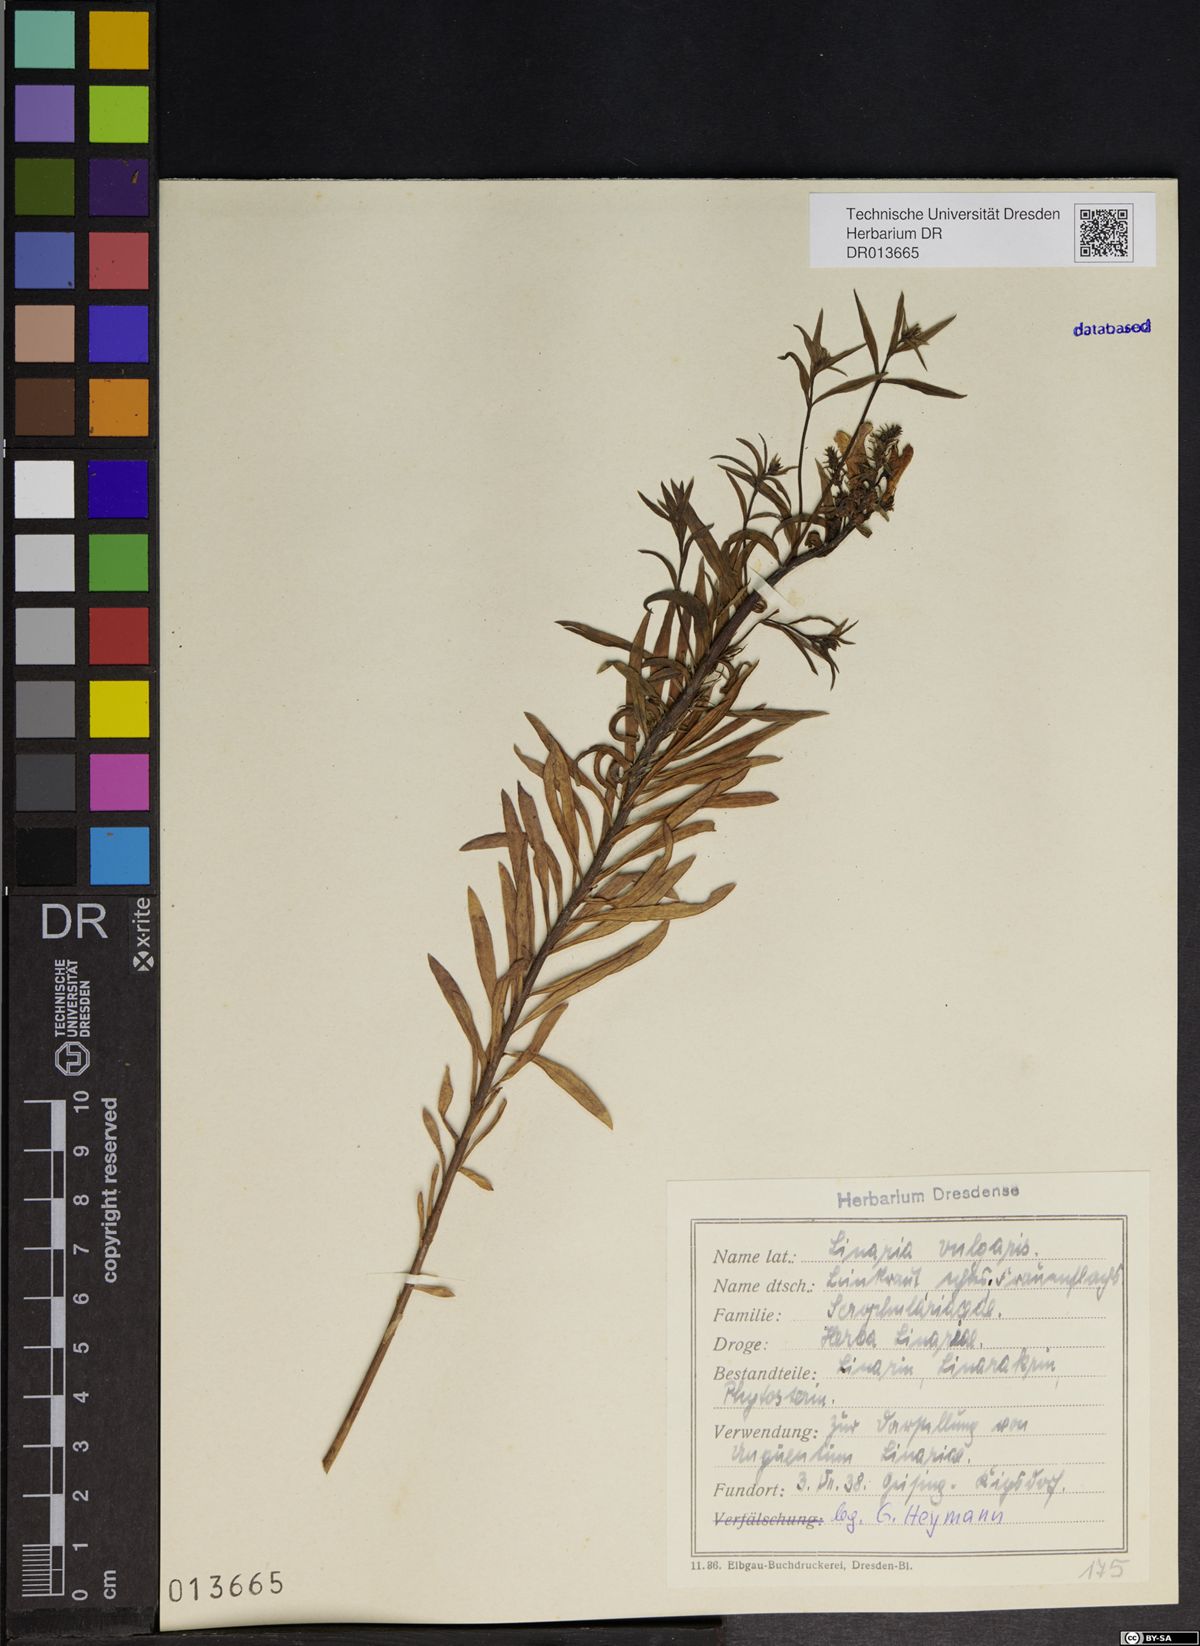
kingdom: Plantae
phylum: Tracheophyta
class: Magnoliopsida
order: Lamiales
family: Plantaginaceae
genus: Linaria
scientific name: Linaria vulgaris
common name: Butter and eggs
